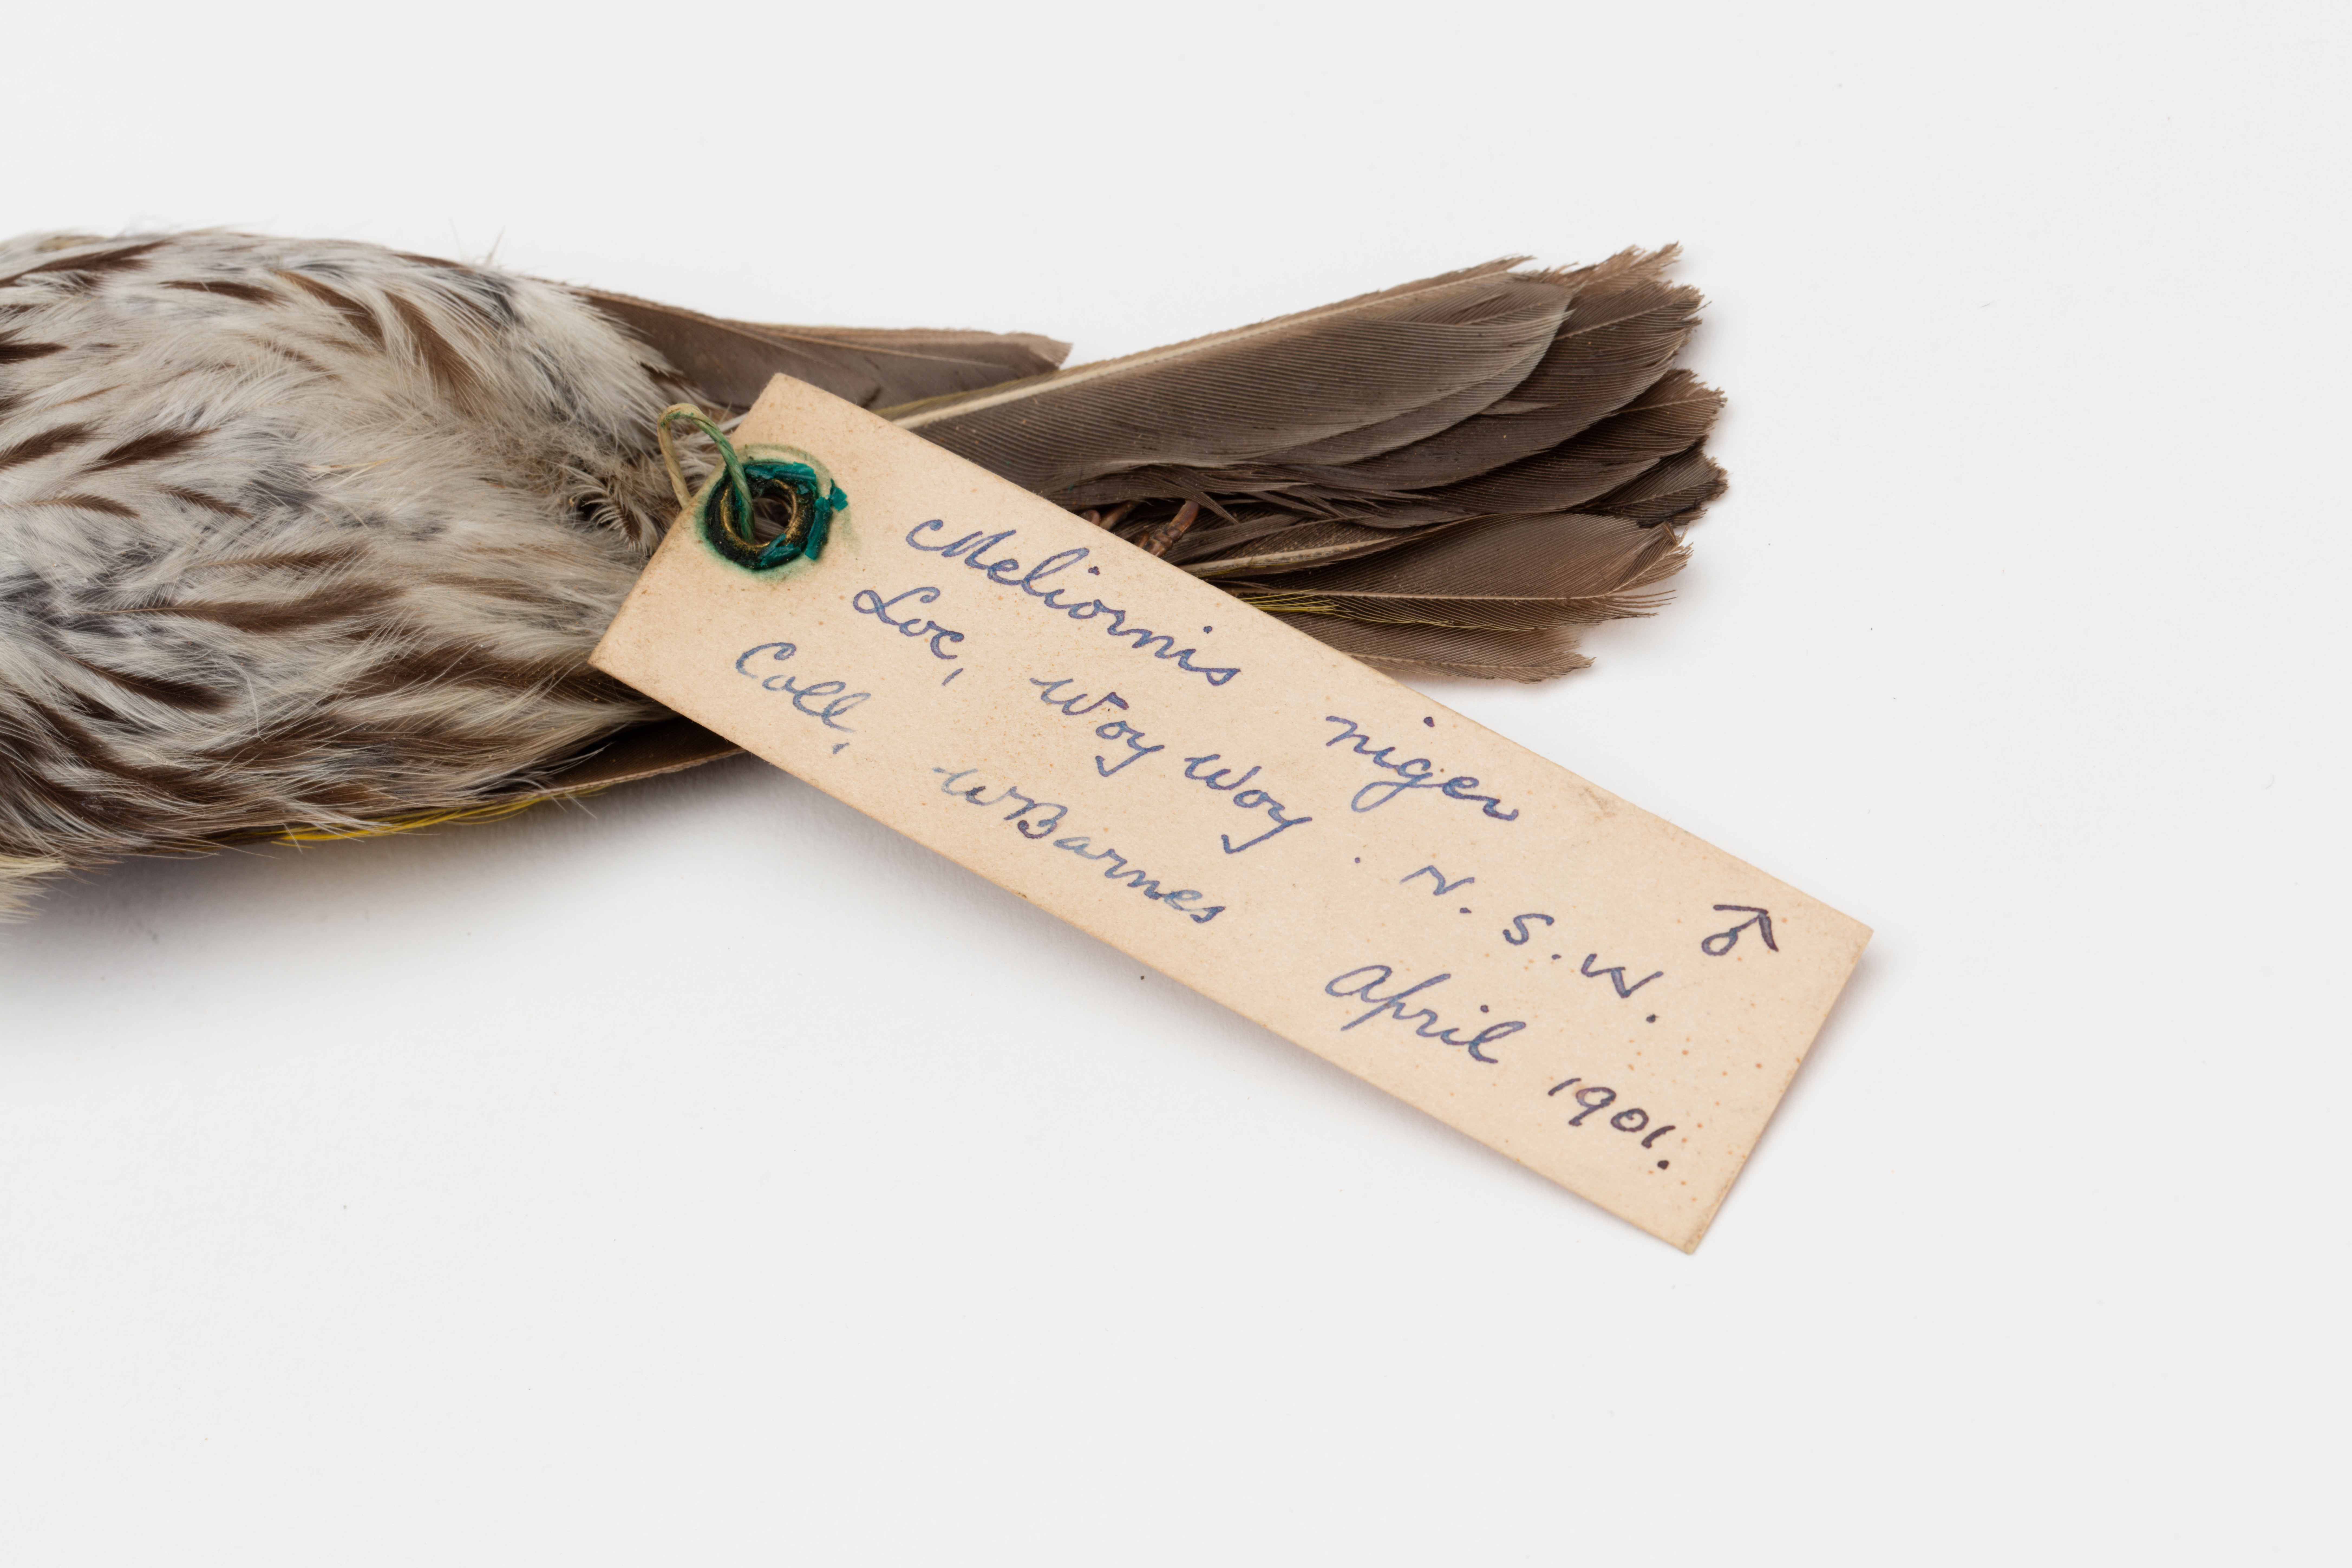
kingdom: Animalia
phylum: Chordata
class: Aves
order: Passeriformes
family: Meliphagidae
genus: Phylidonyris
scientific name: Phylidonyris niger
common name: White-cheeked honeyeater
